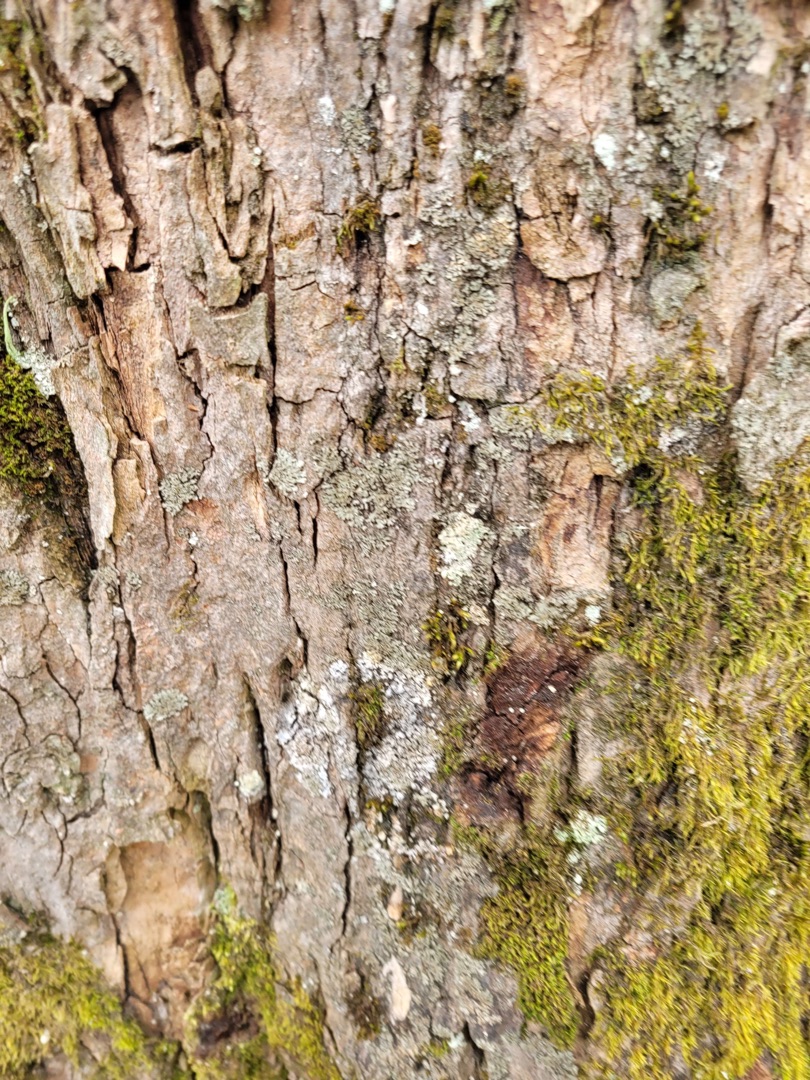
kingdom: Fungi
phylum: Ascomycota
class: Lecanoromycetes
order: Caliciales
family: Physciaceae
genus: Phaeophyscia
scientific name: Phaeophyscia orbicularis
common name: Grågrøn rosetlav
